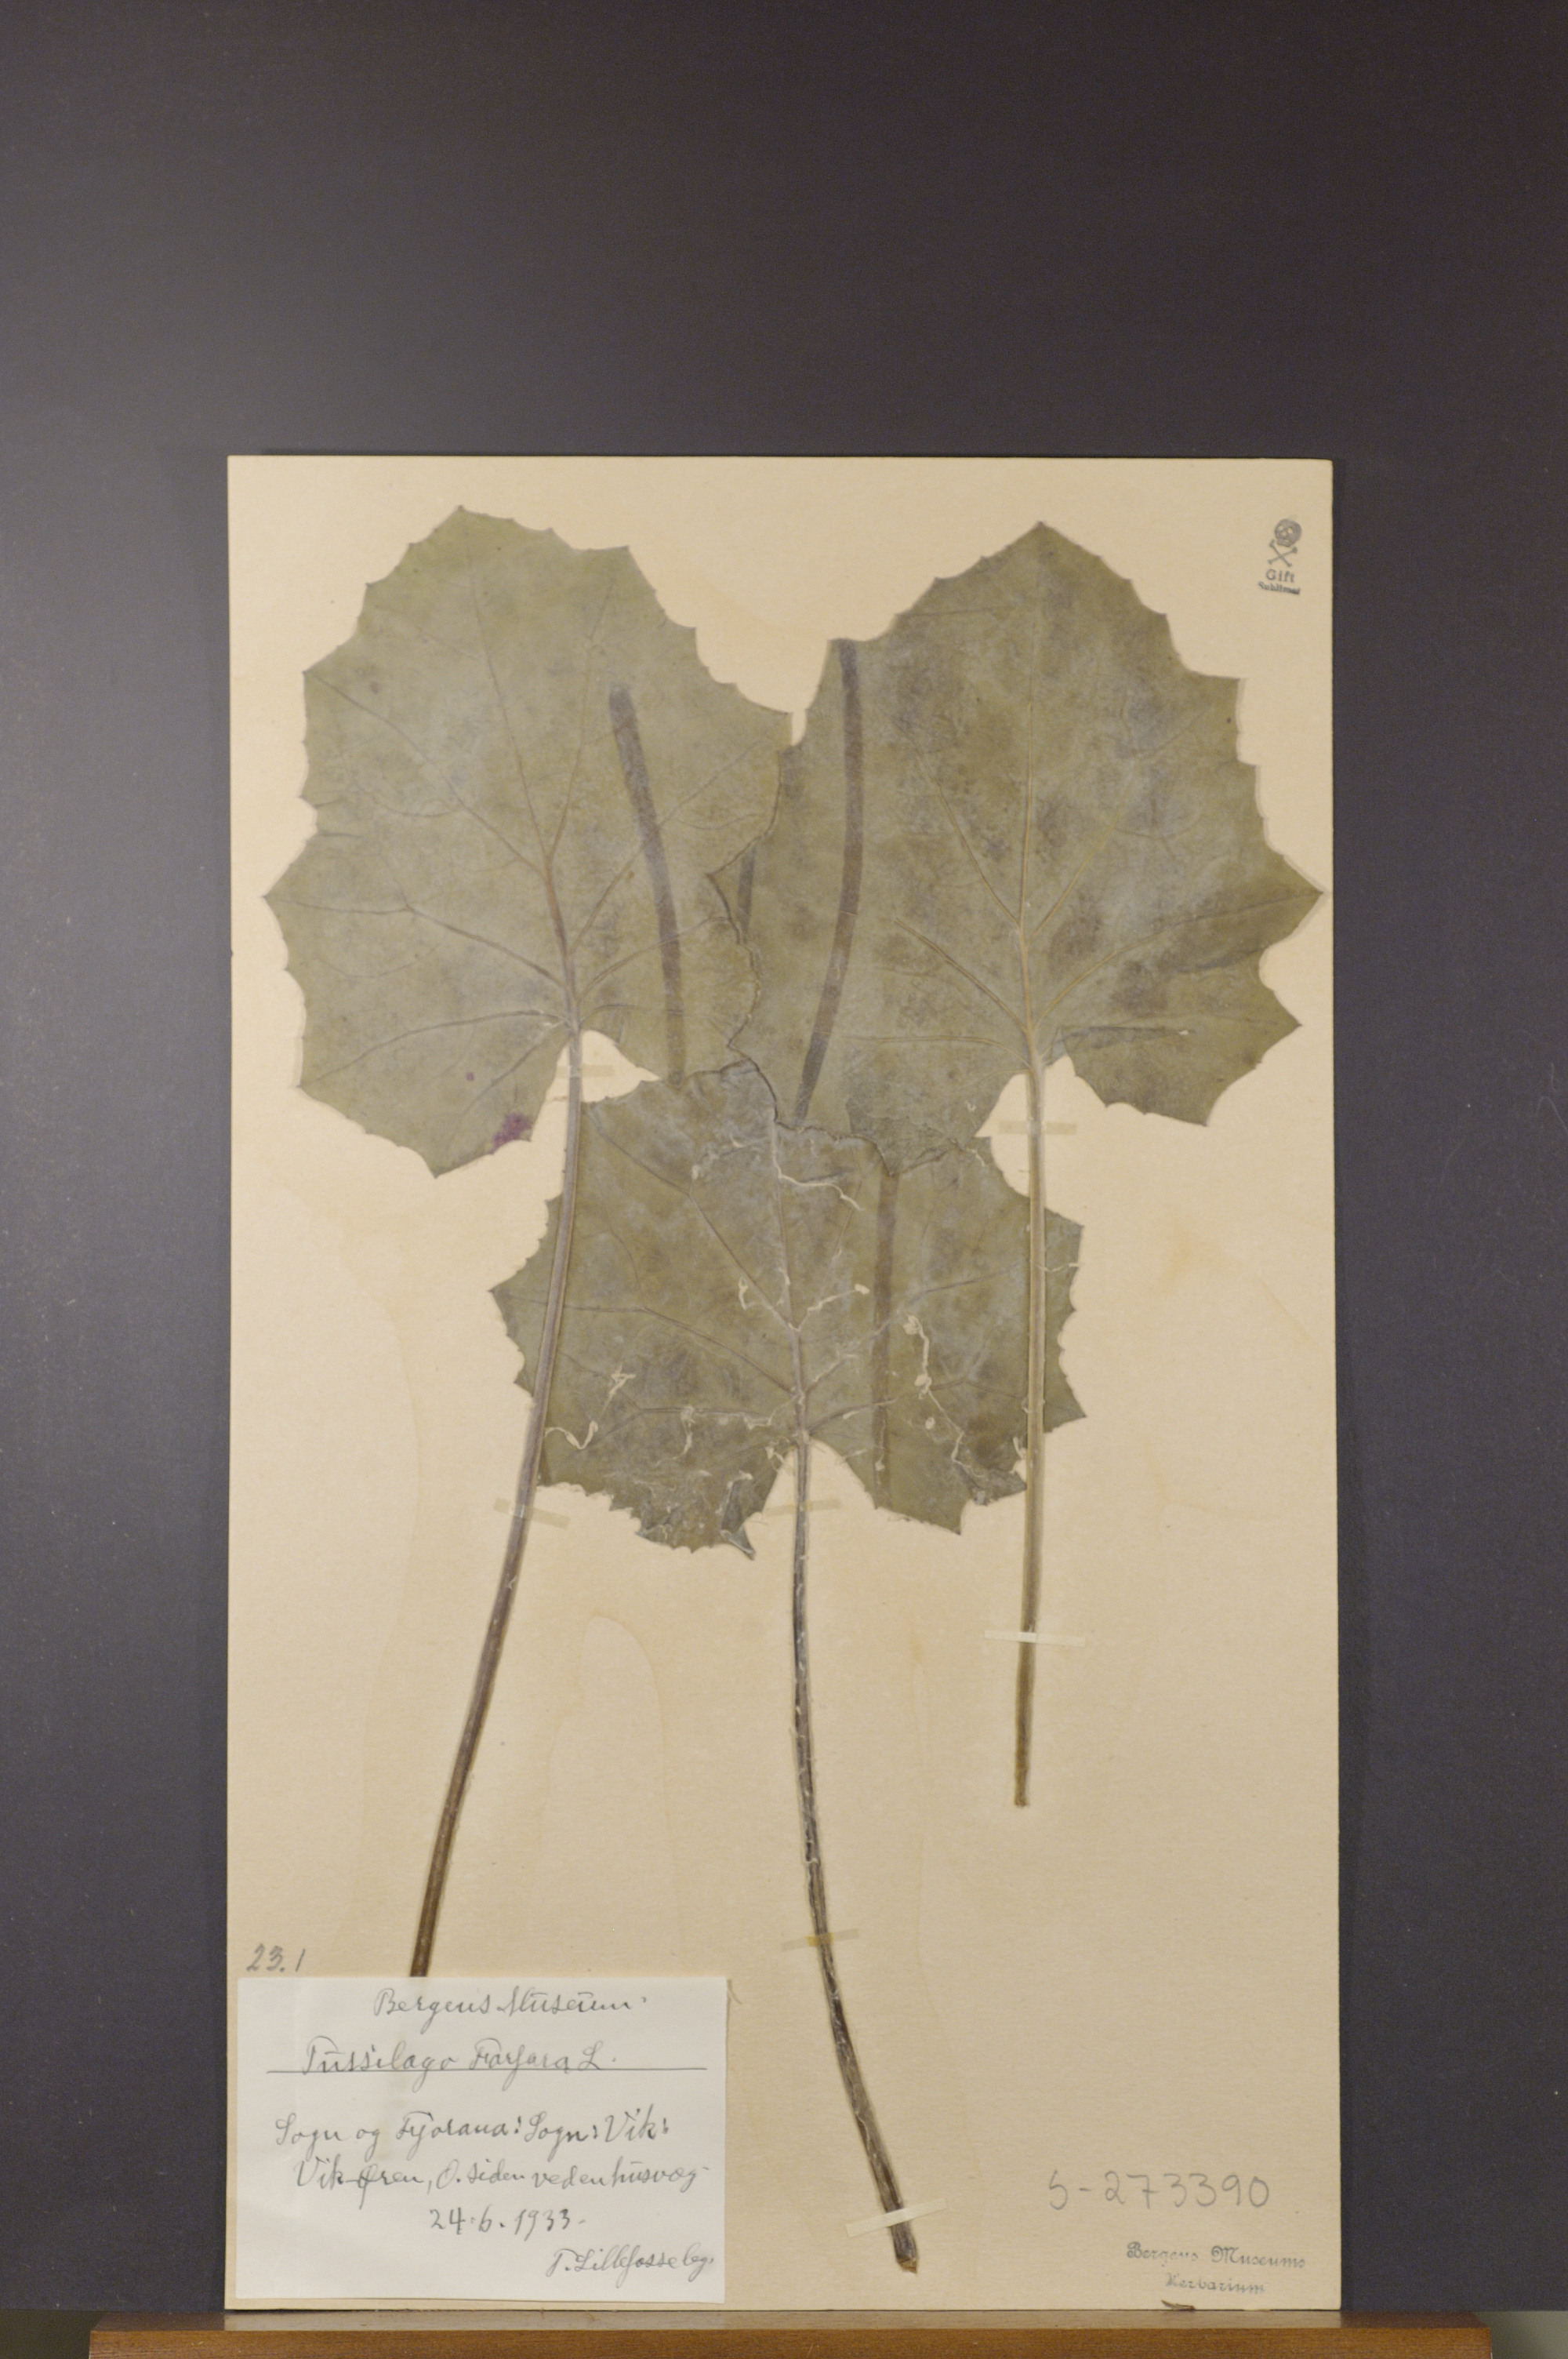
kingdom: Plantae
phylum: Tracheophyta
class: Magnoliopsida
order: Asterales
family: Asteraceae
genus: Tussilago
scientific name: Tussilago farfara
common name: Coltsfoot
